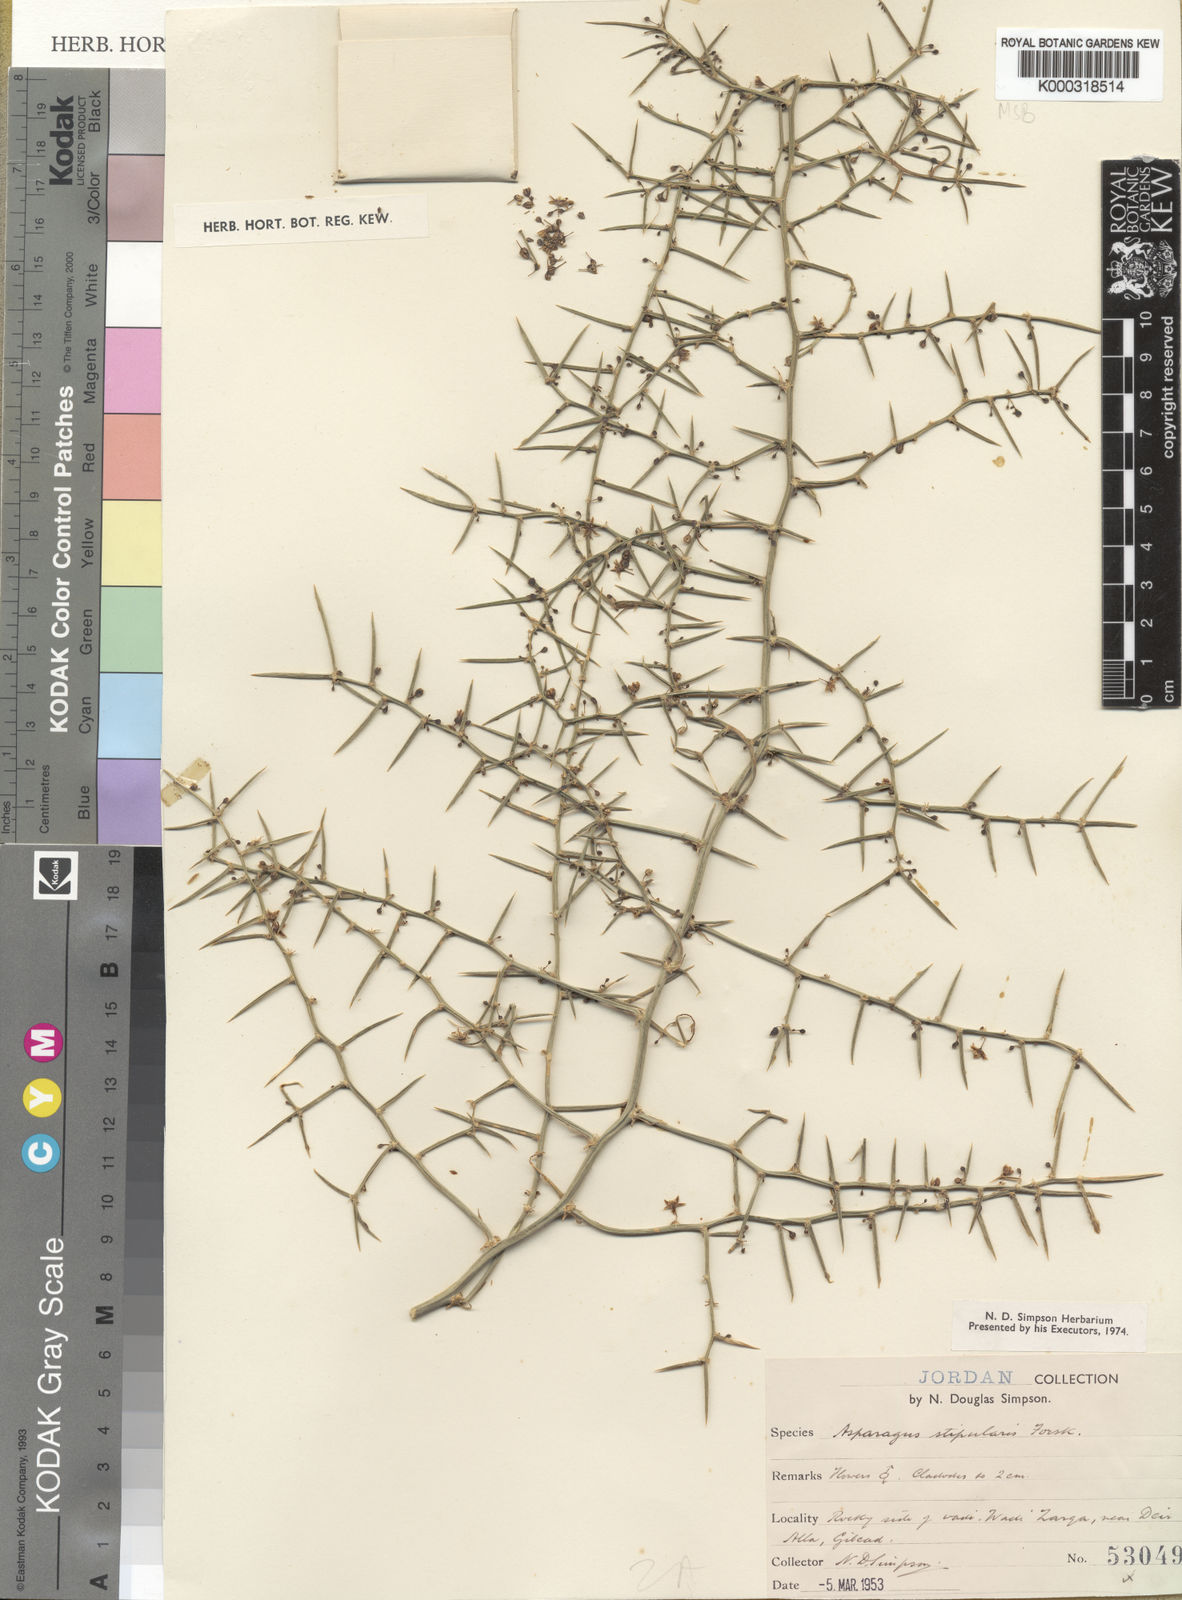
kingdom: Plantae
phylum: Tracheophyta
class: Liliopsida
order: Asparagales
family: Asparagaceae
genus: Asparagus
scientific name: Asparagus horridus
